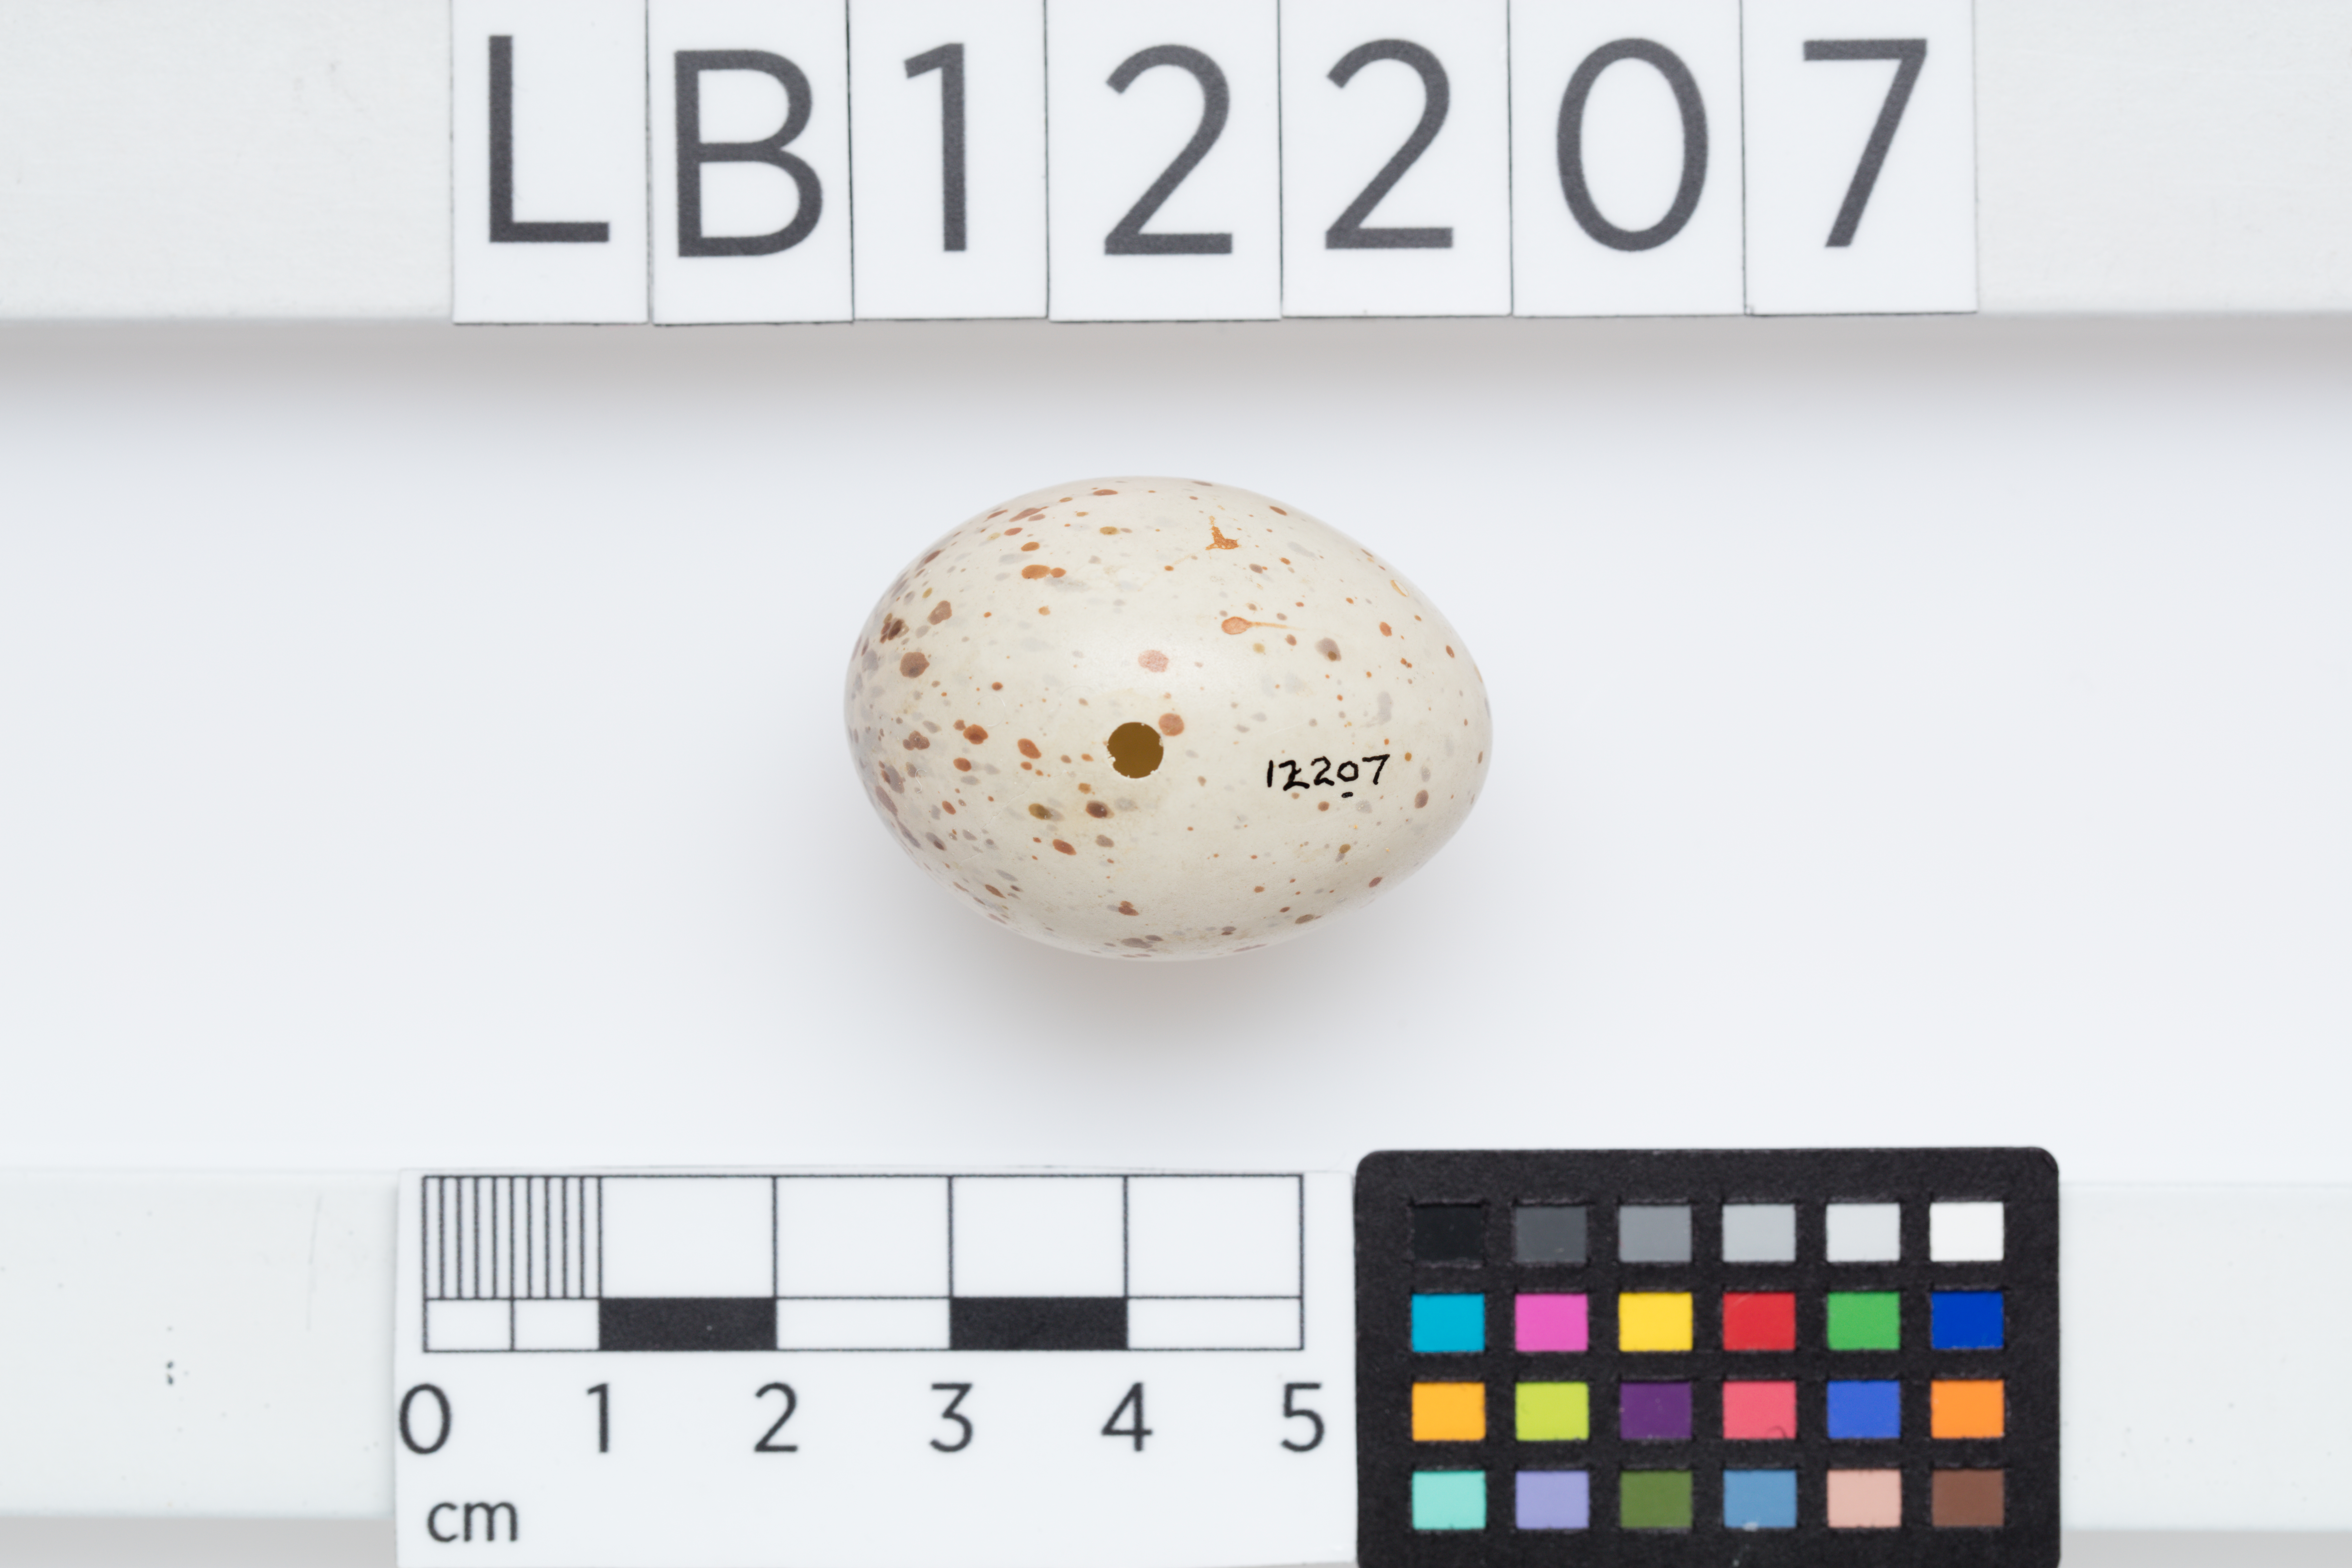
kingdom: Animalia
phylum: Chordata
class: Aves
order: Gruiformes
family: Rallidae
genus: Crex
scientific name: Crex crex
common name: Corn crake
